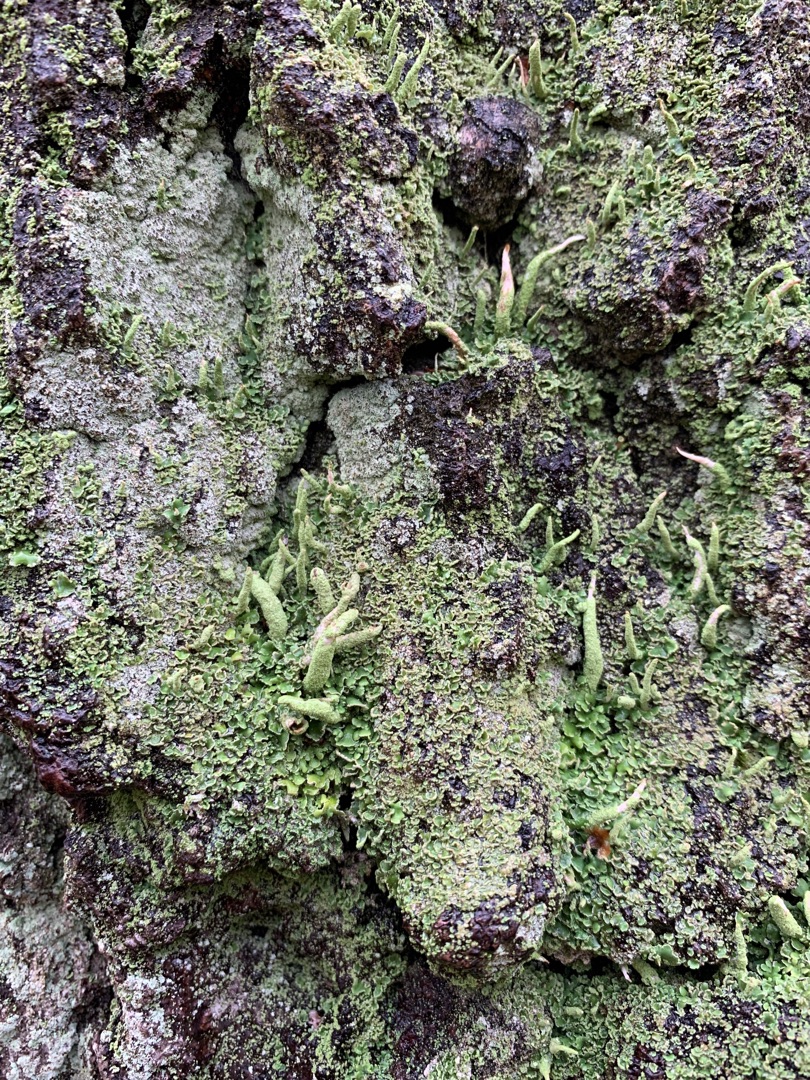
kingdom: Fungi
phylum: Ascomycota
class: Lecanoromycetes
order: Lecanorales
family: Cladoniaceae
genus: Cladonia
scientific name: Cladonia coniocraea
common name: Træfods-bægerlav
